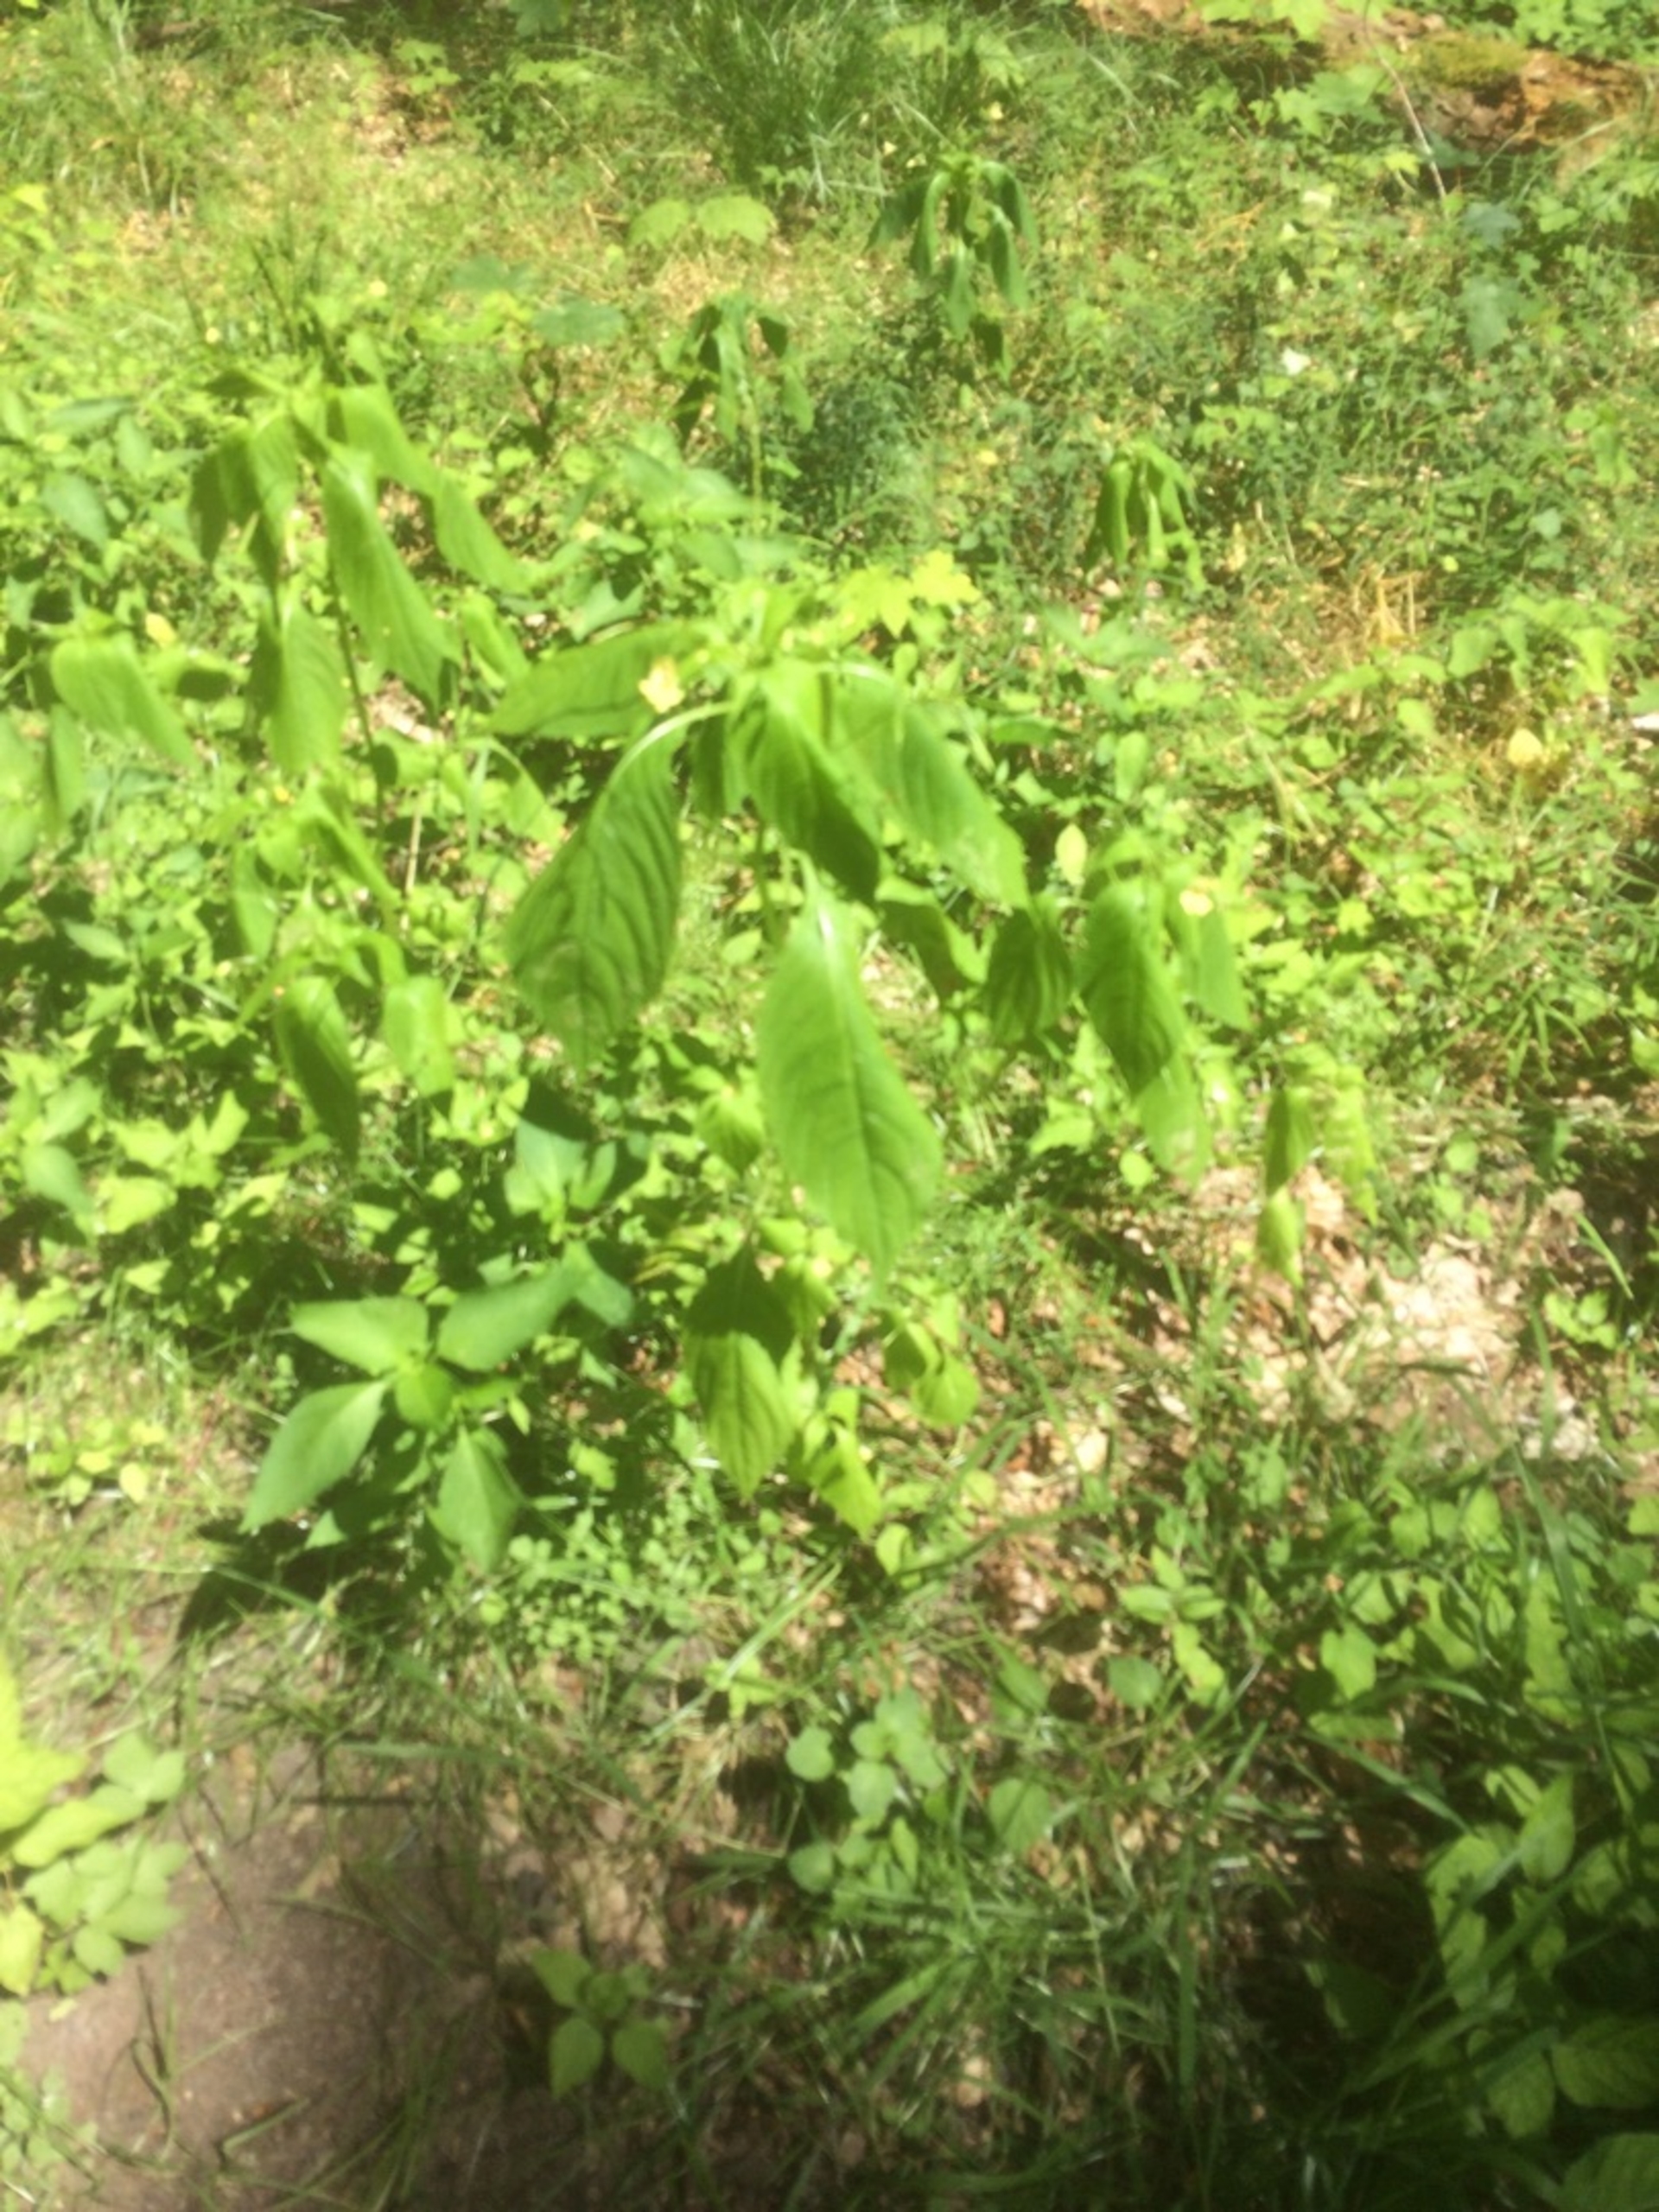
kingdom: Plantae
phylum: Tracheophyta
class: Magnoliopsida
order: Ericales
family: Balsaminaceae
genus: Impatiens
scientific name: Impatiens parviflora
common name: Småblomstret balsamin
